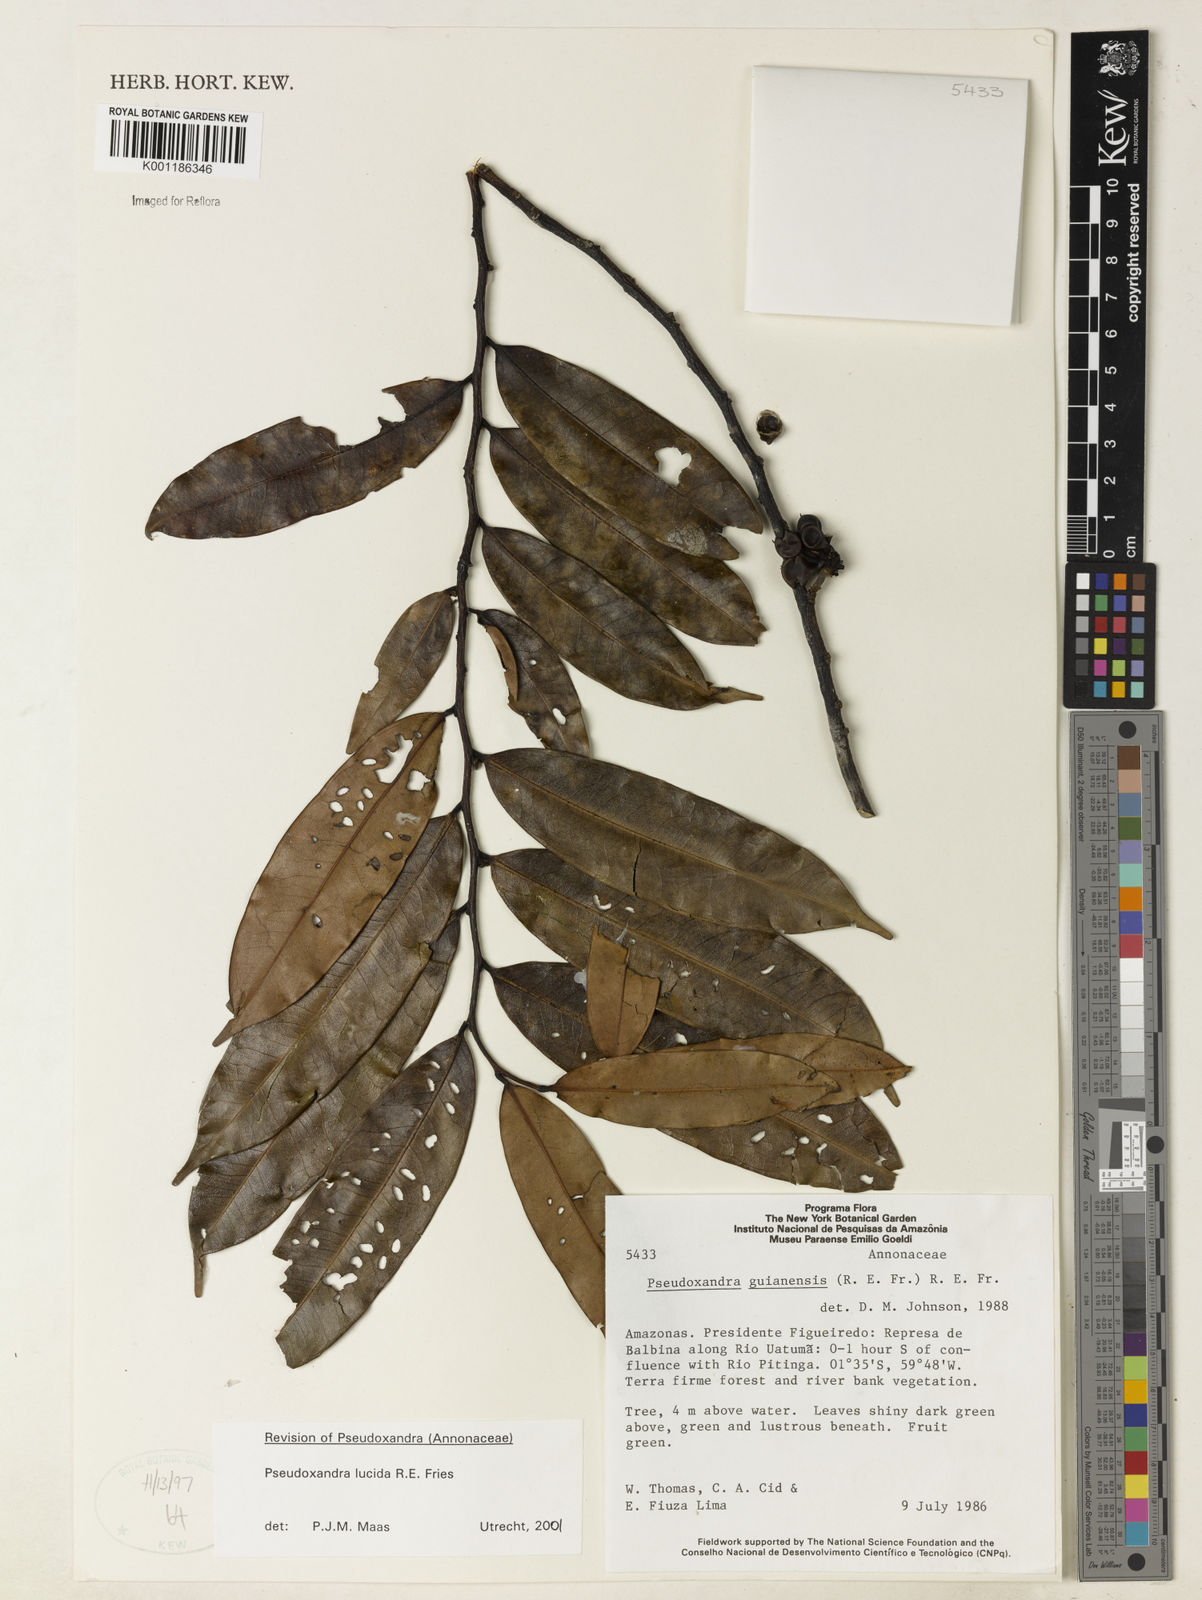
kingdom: Plantae
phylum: Tracheophyta
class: Magnoliopsida
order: Magnoliales
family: Annonaceae
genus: Pseudoxandra
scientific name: Pseudoxandra lucida
